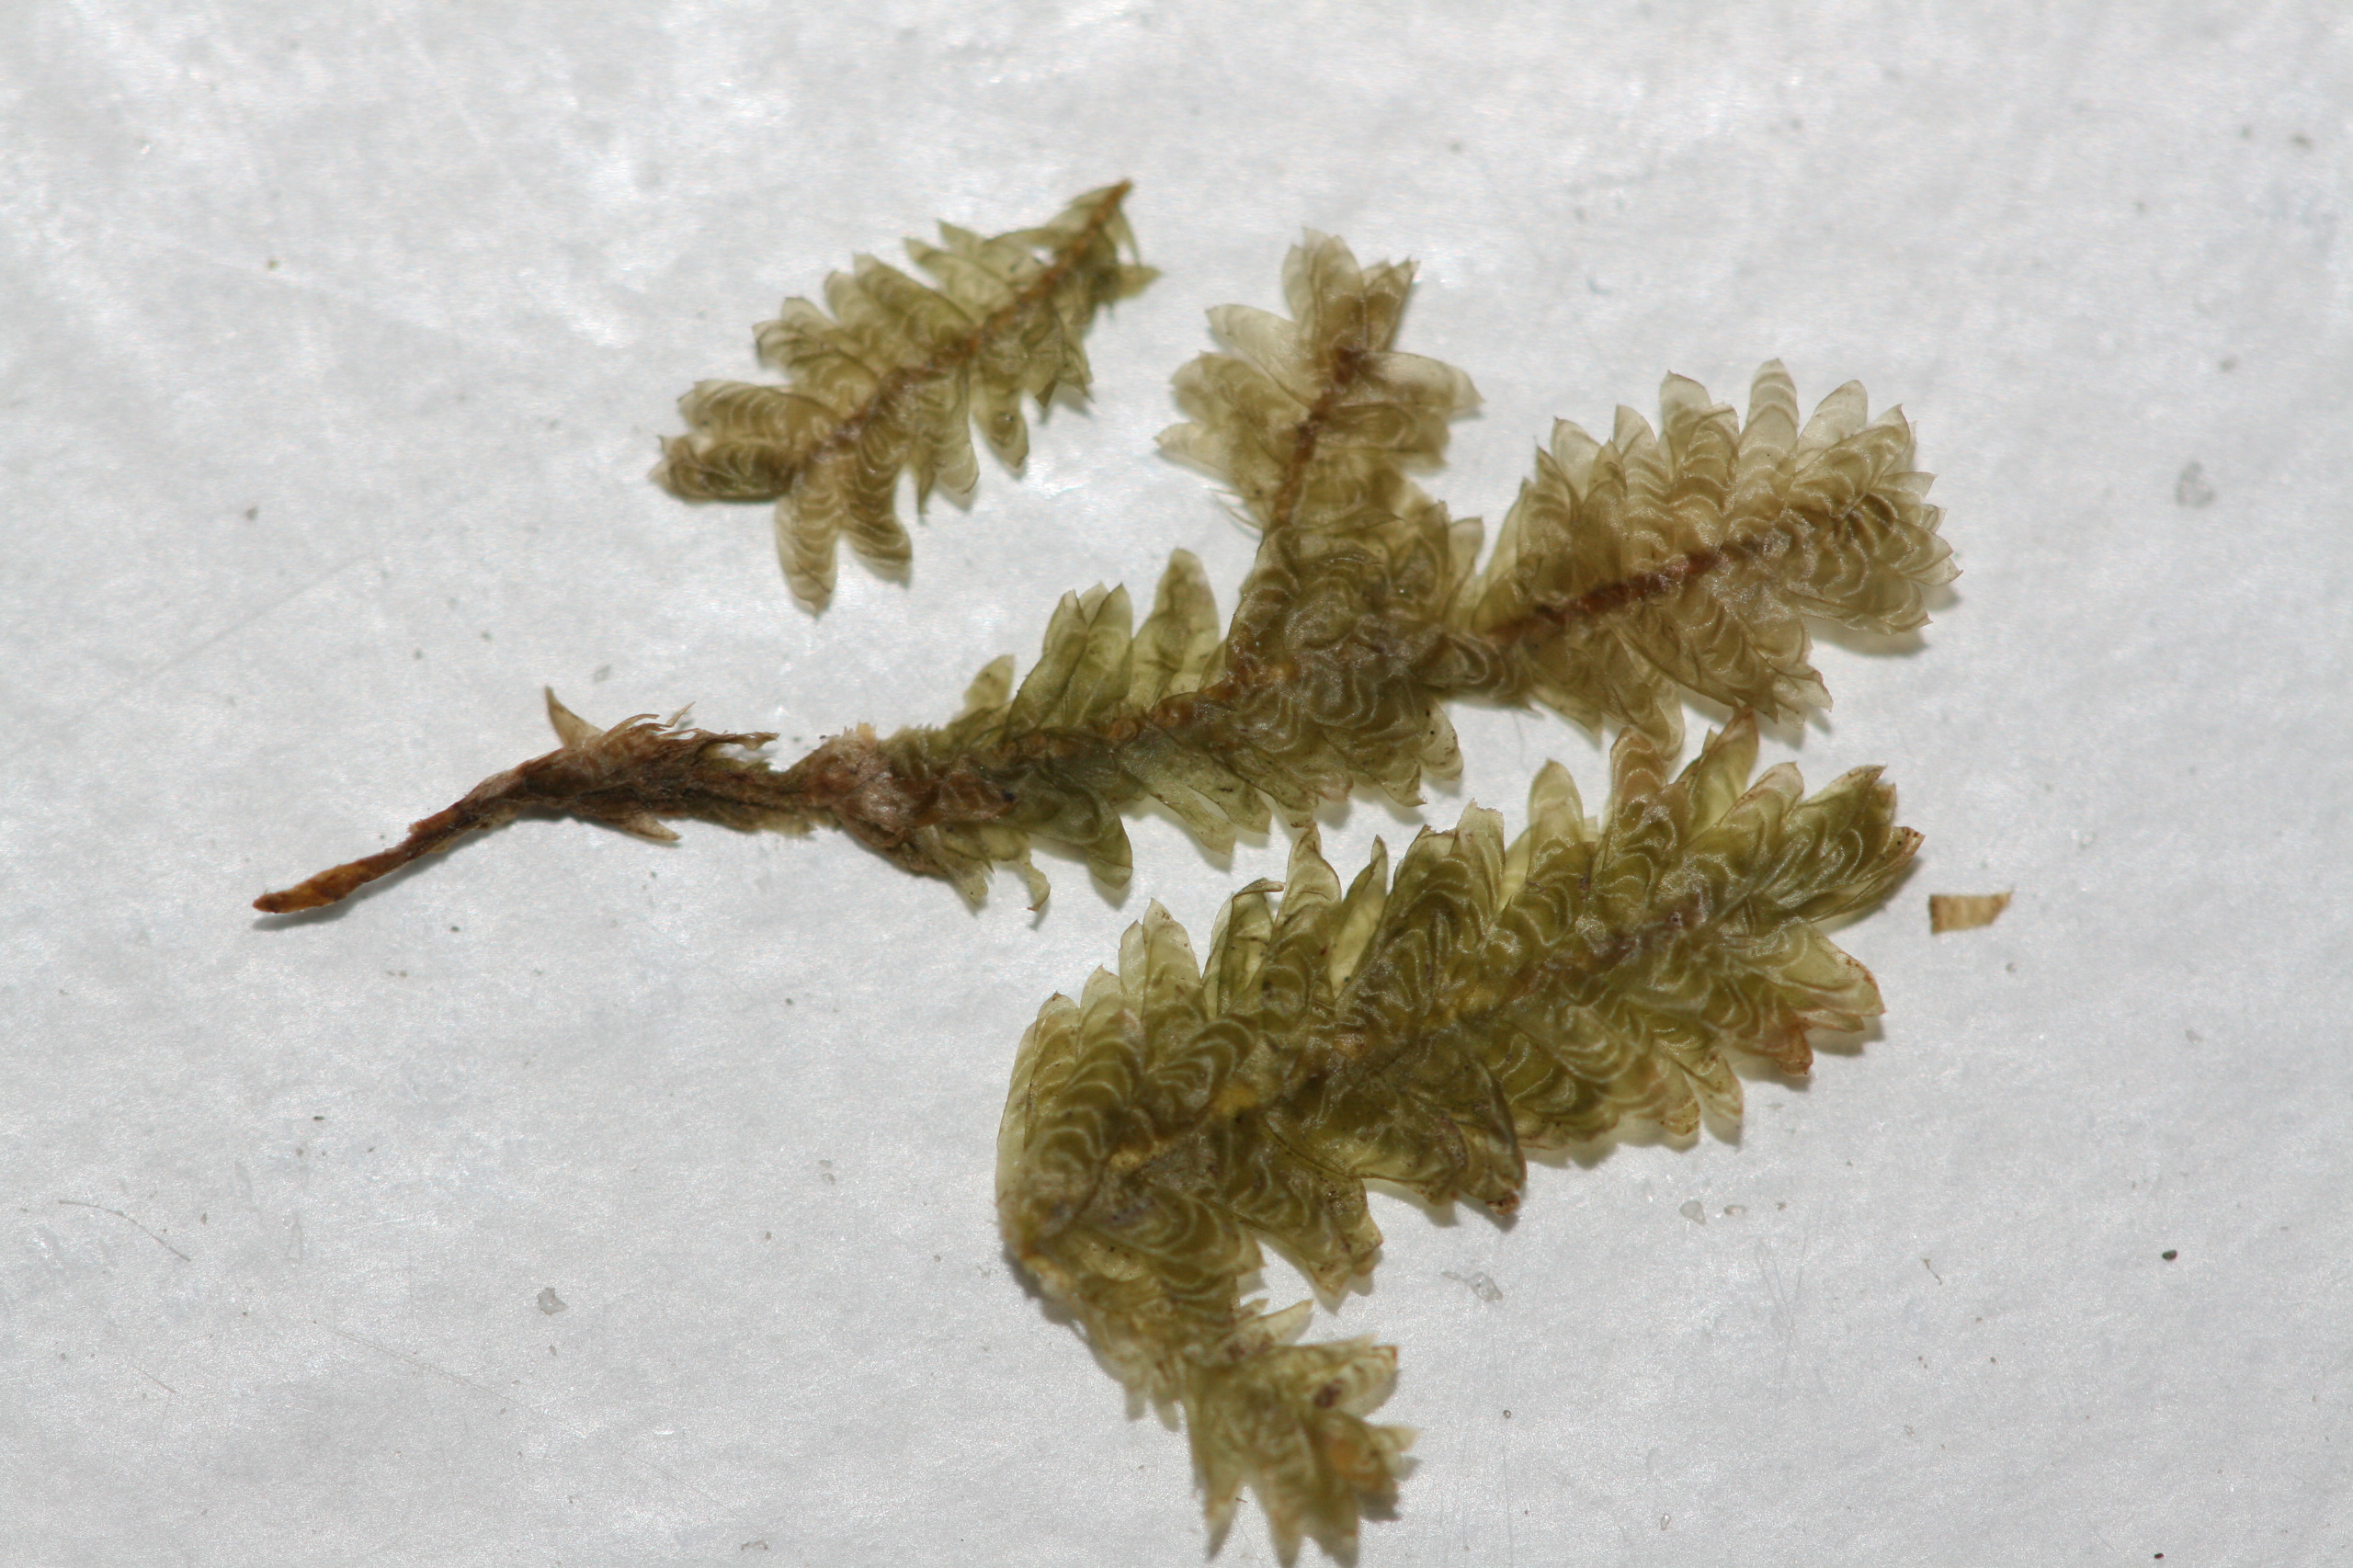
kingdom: Plantae
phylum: Bryophyta
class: Bryopsida
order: Hypnales
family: Neckeraceae
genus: Exsertotheca
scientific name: Exsertotheca crispa
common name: Kruset fladmos
